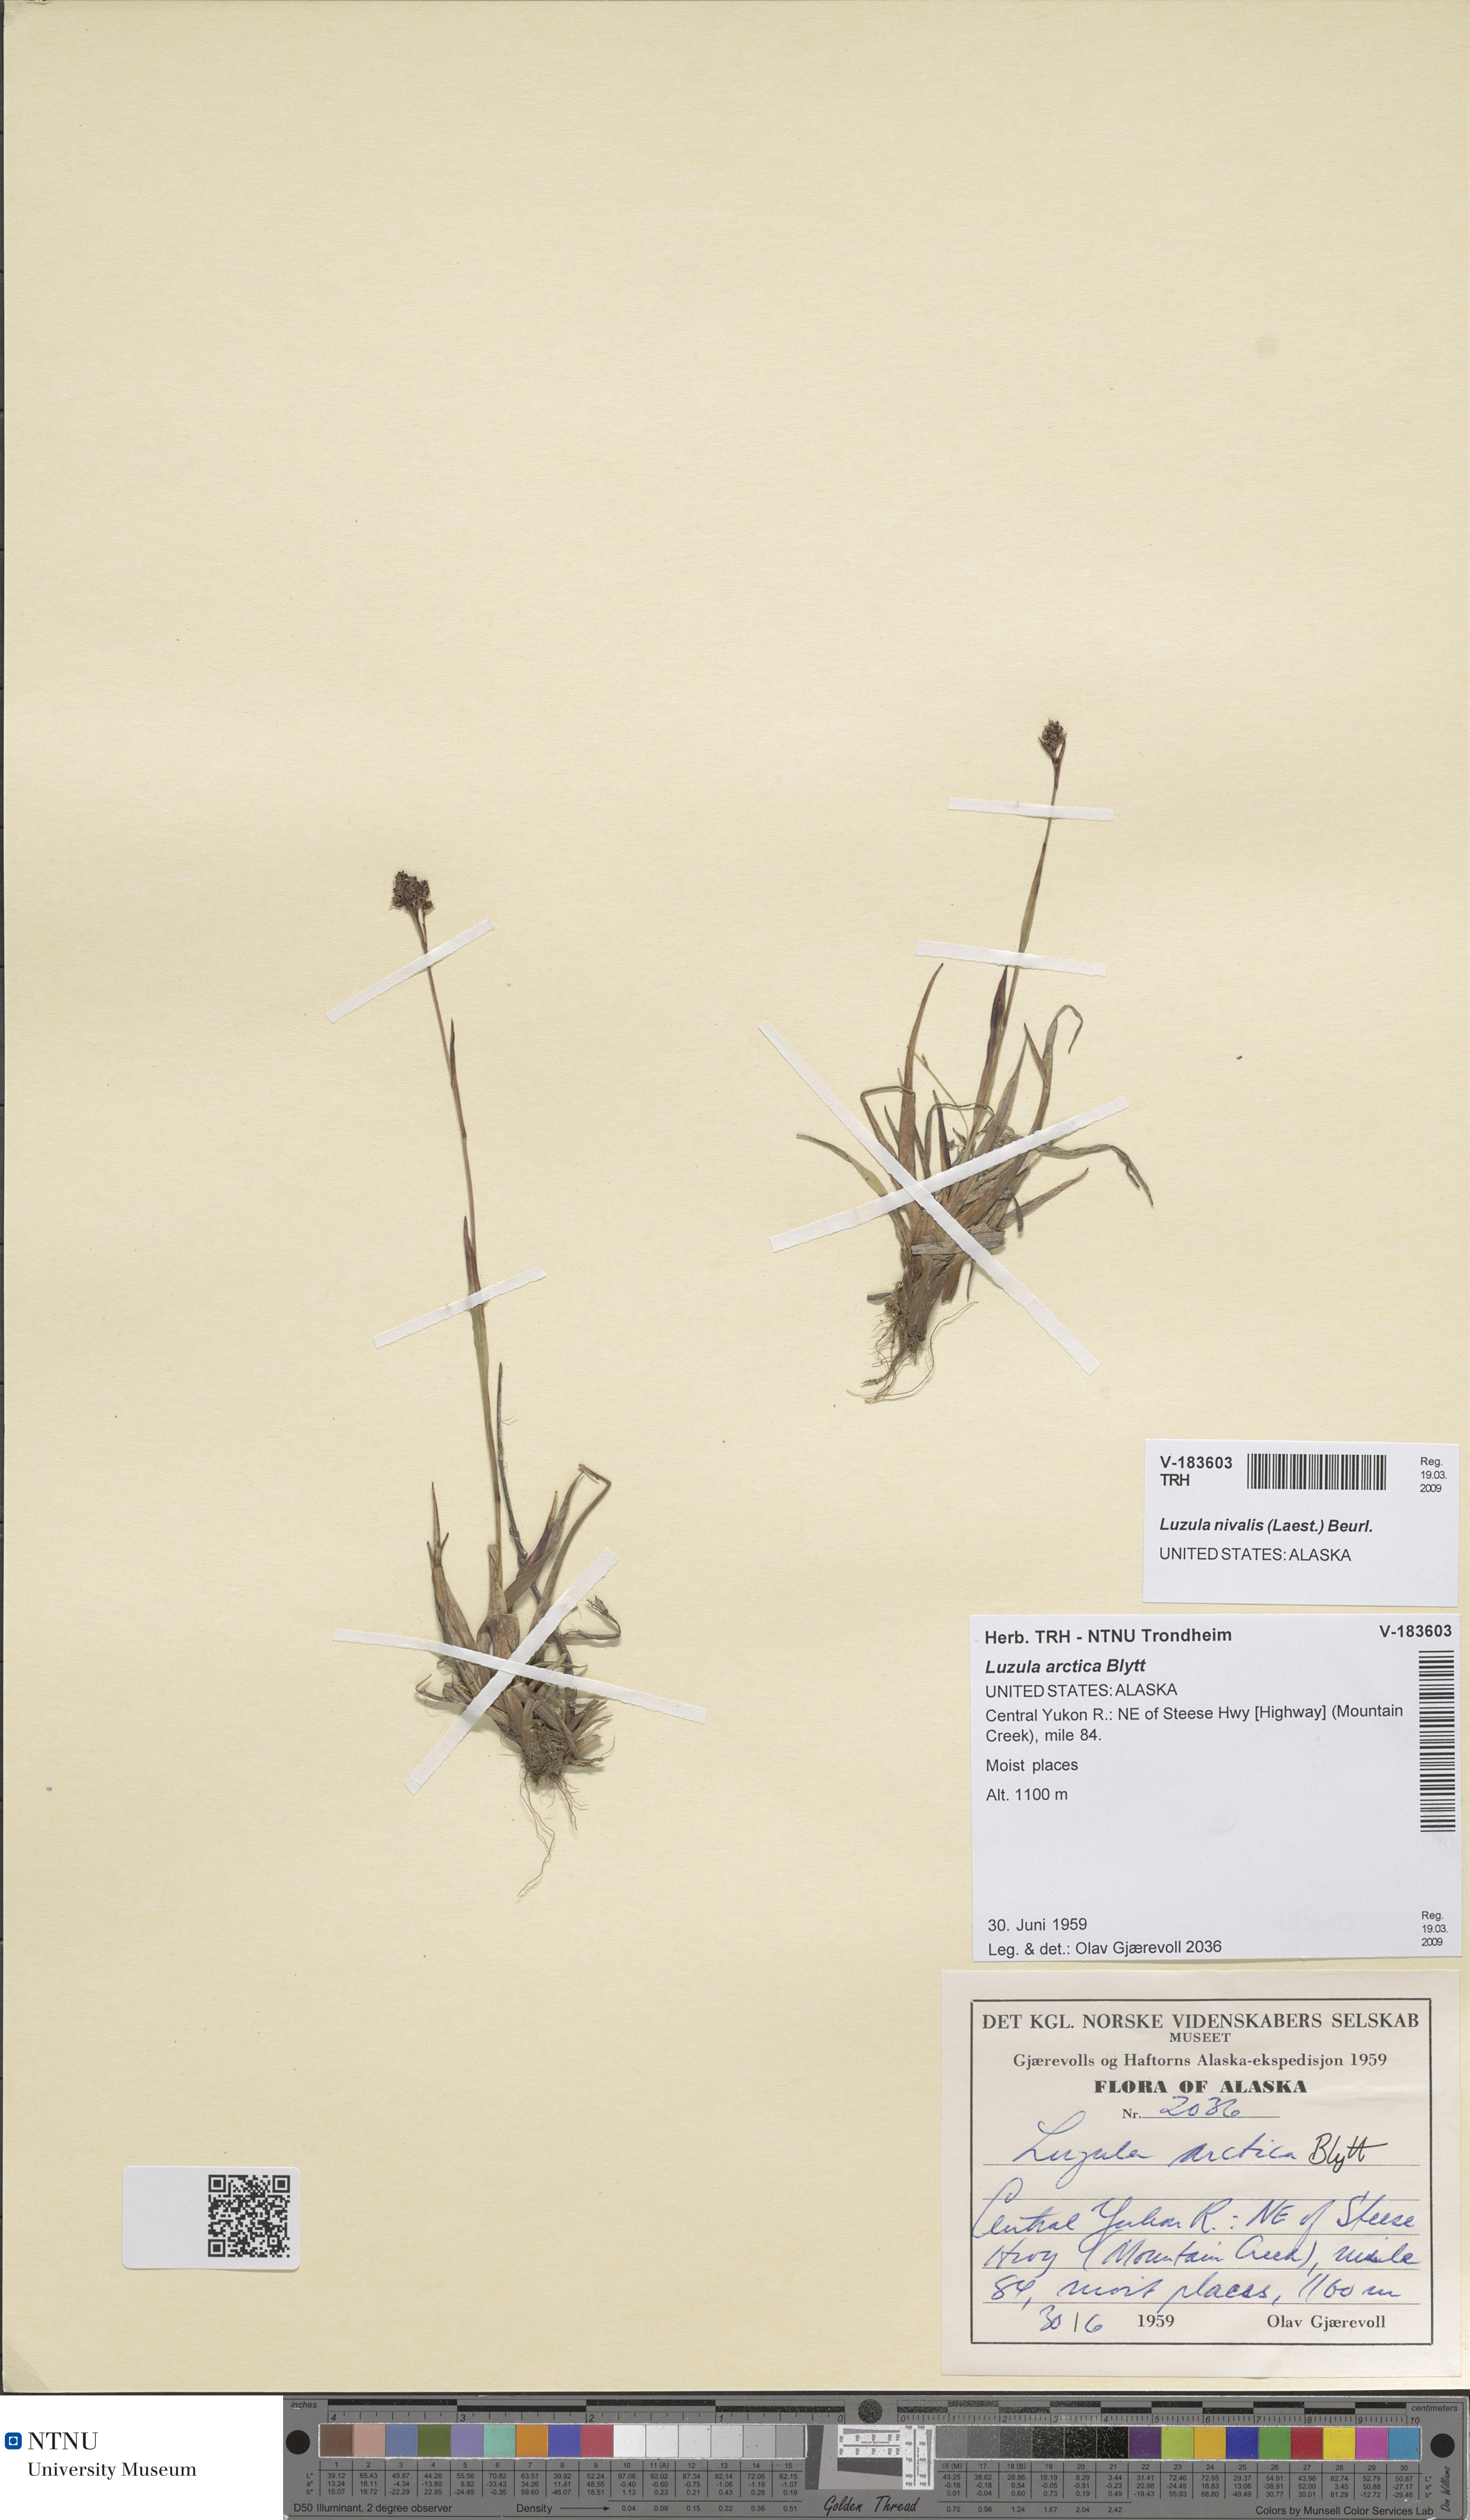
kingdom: Plantae
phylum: Tracheophyta
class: Liliopsida
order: Poales
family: Juncaceae
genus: Luzula
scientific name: Luzula nivalis
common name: Arctic woodrush
